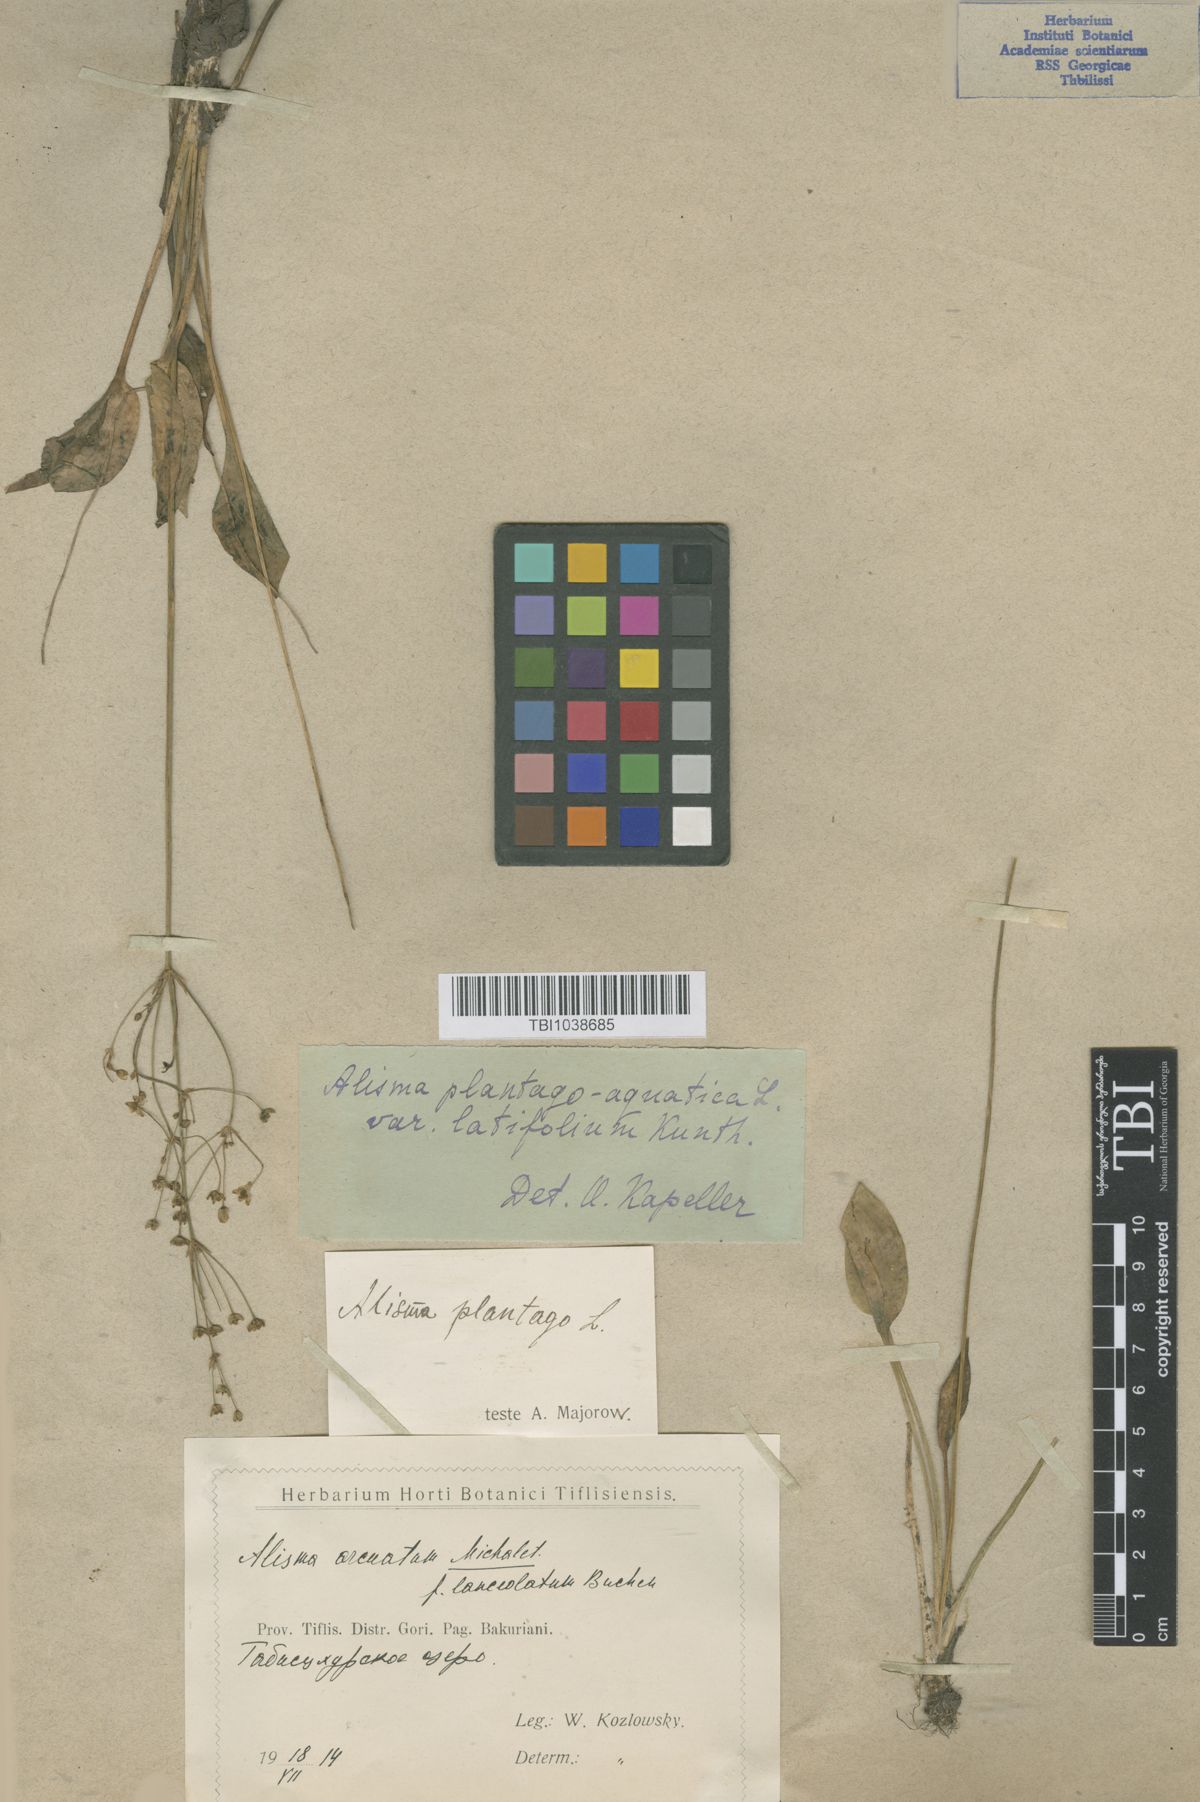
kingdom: Plantae
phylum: Tracheophyta
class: Liliopsida
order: Alismatales
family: Alismataceae
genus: Alisma
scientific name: Alisma plantago-aquatica
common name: Water-plantain
